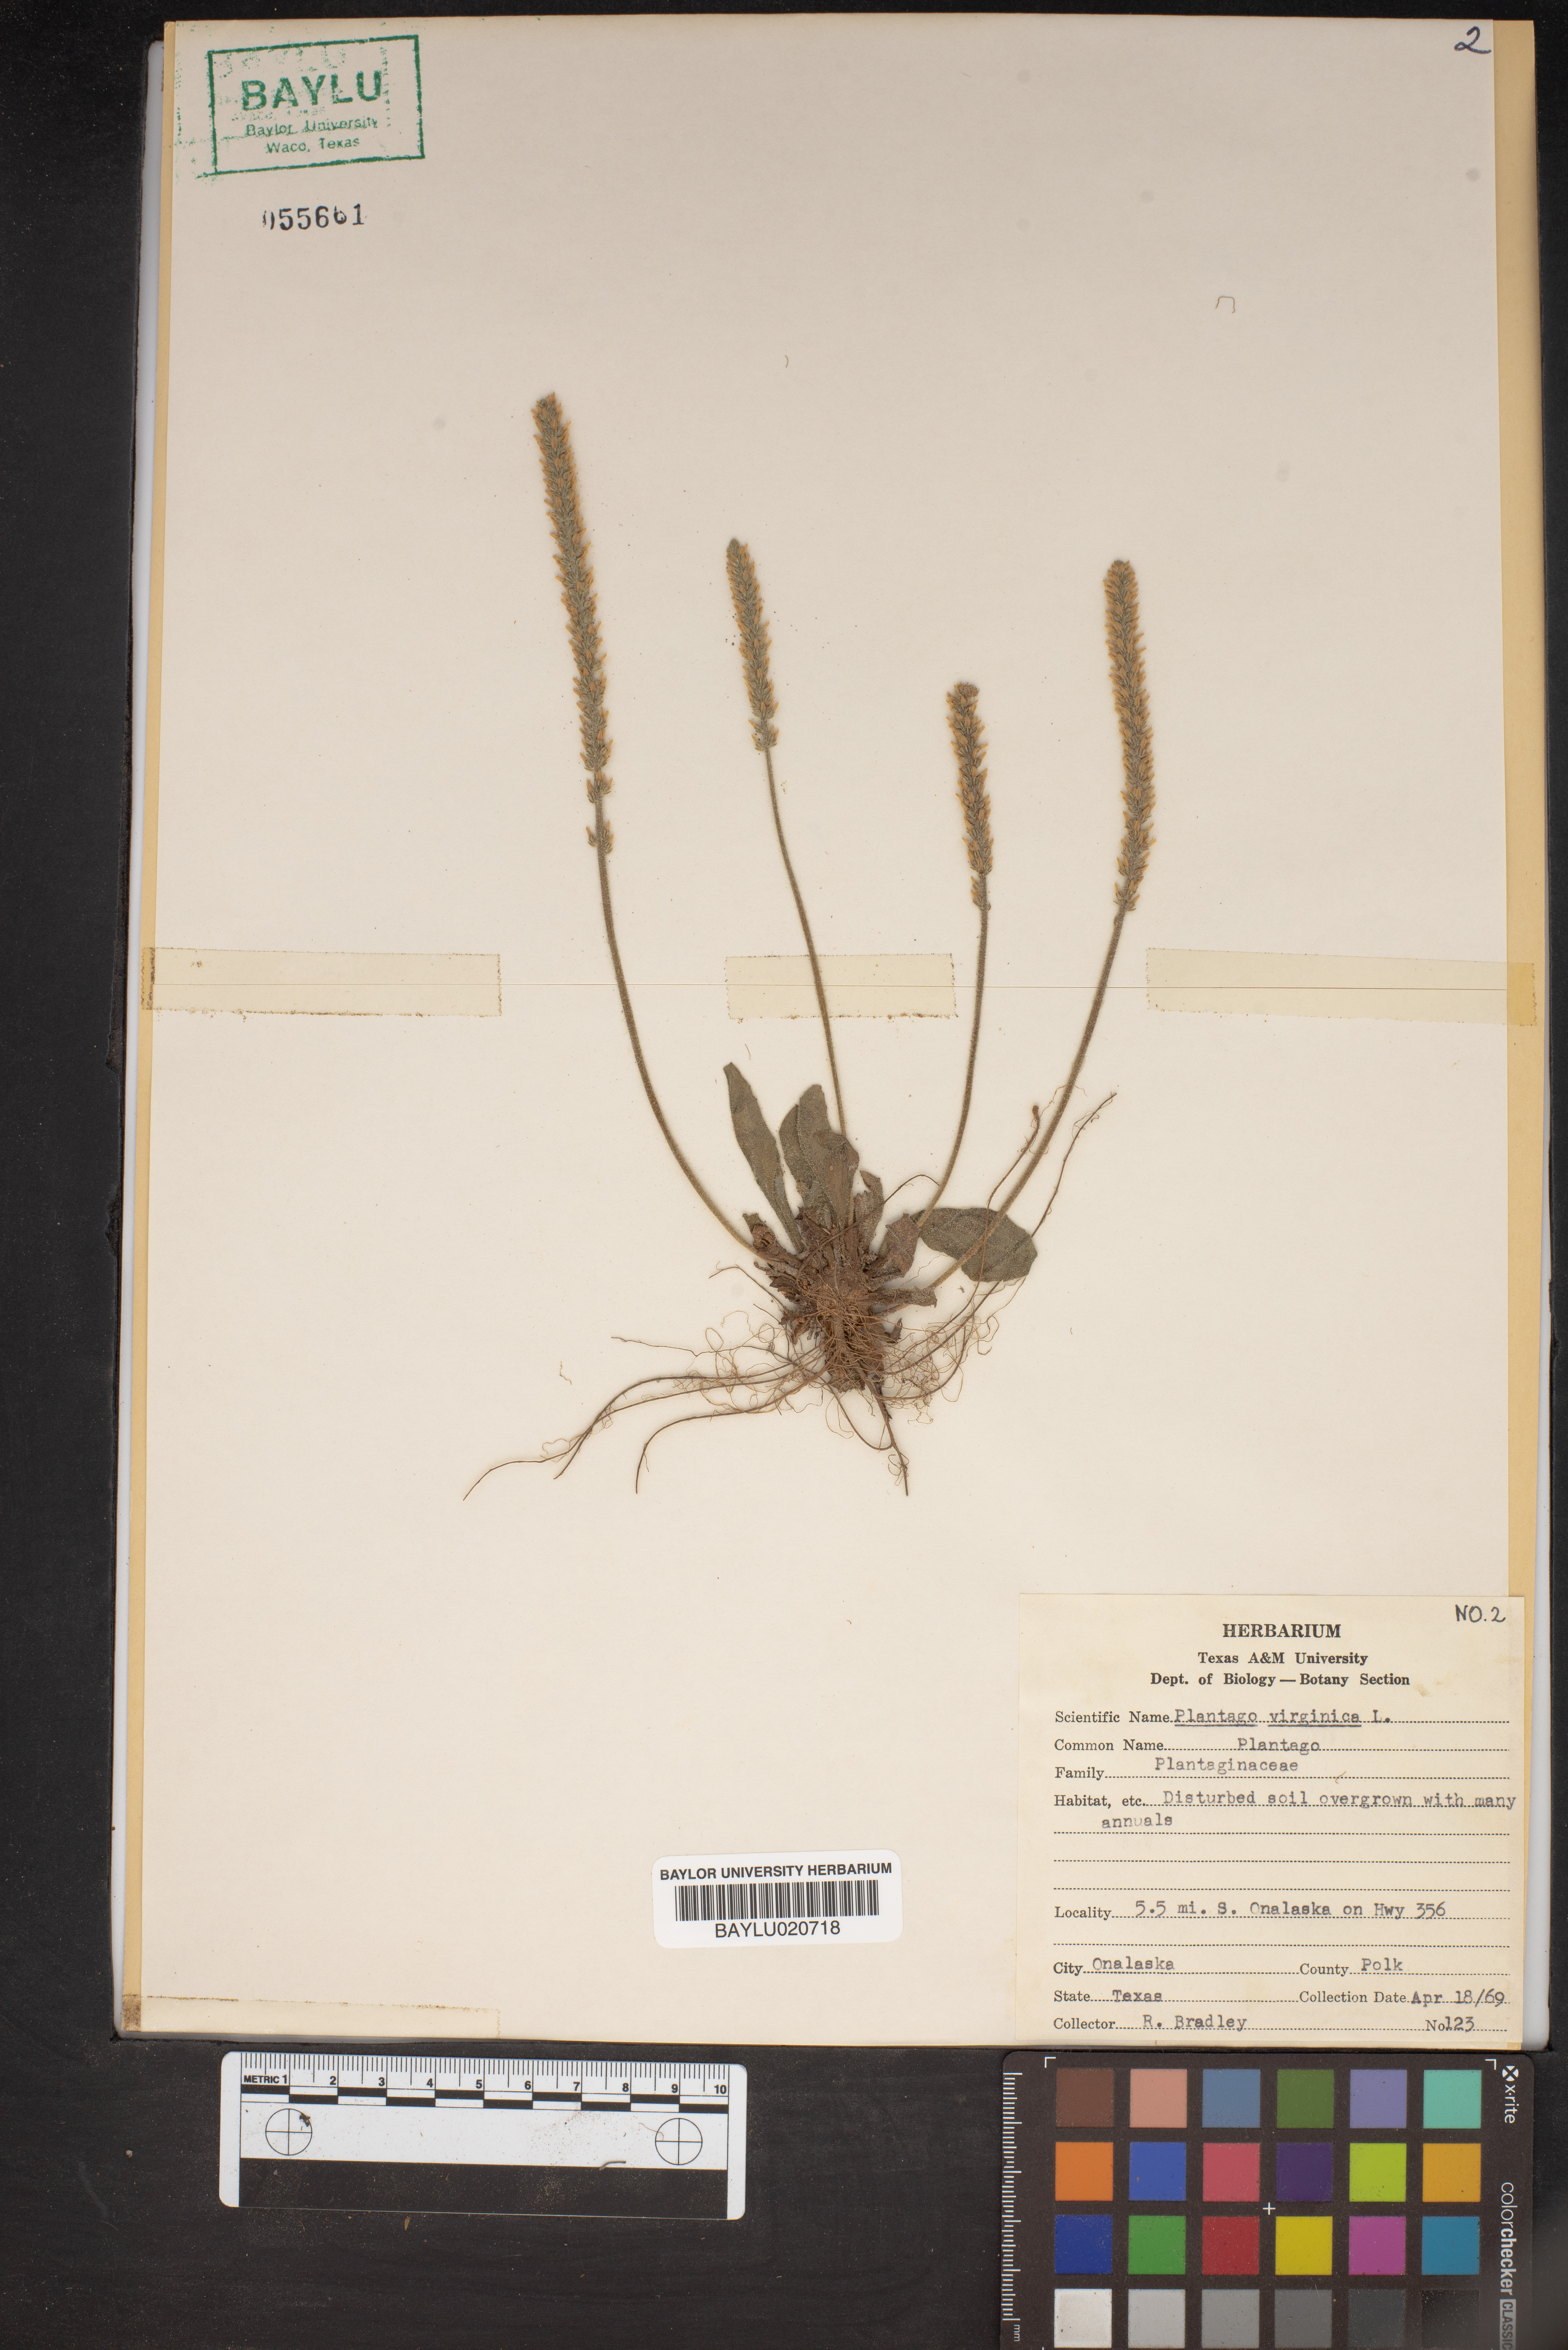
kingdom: Plantae
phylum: Tracheophyta
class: Magnoliopsida
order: Lamiales
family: Plantaginaceae
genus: Plantago
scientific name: Plantago virginica
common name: Hoary plantain
